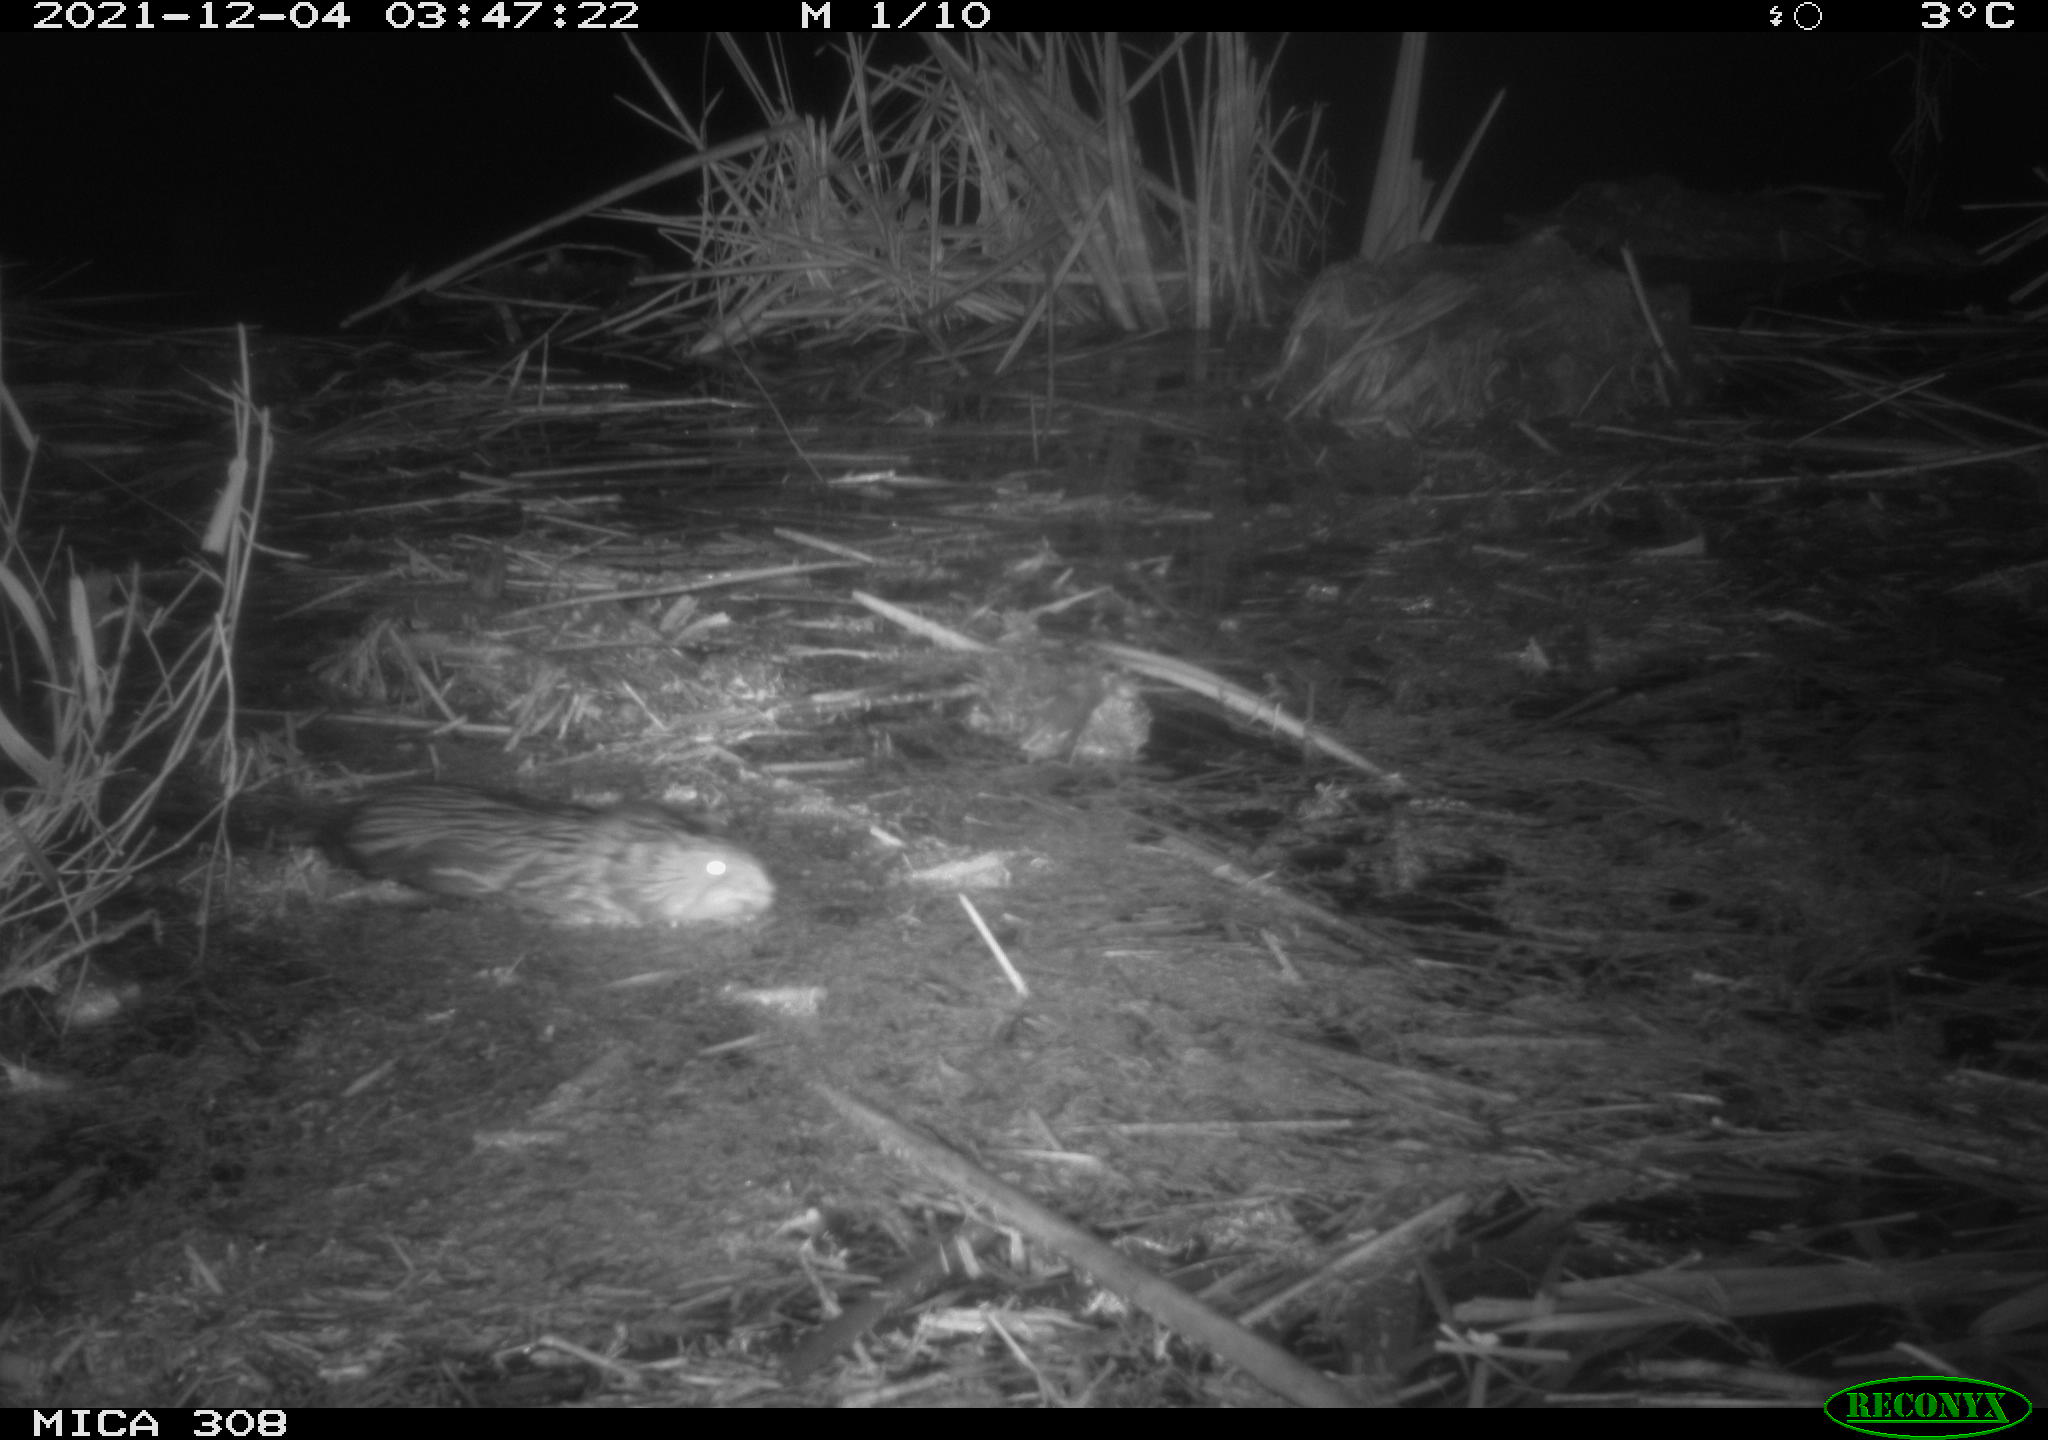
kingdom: Animalia
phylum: Chordata
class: Mammalia
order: Rodentia
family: Cricetidae
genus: Ondatra
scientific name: Ondatra zibethicus
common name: Muskrat
